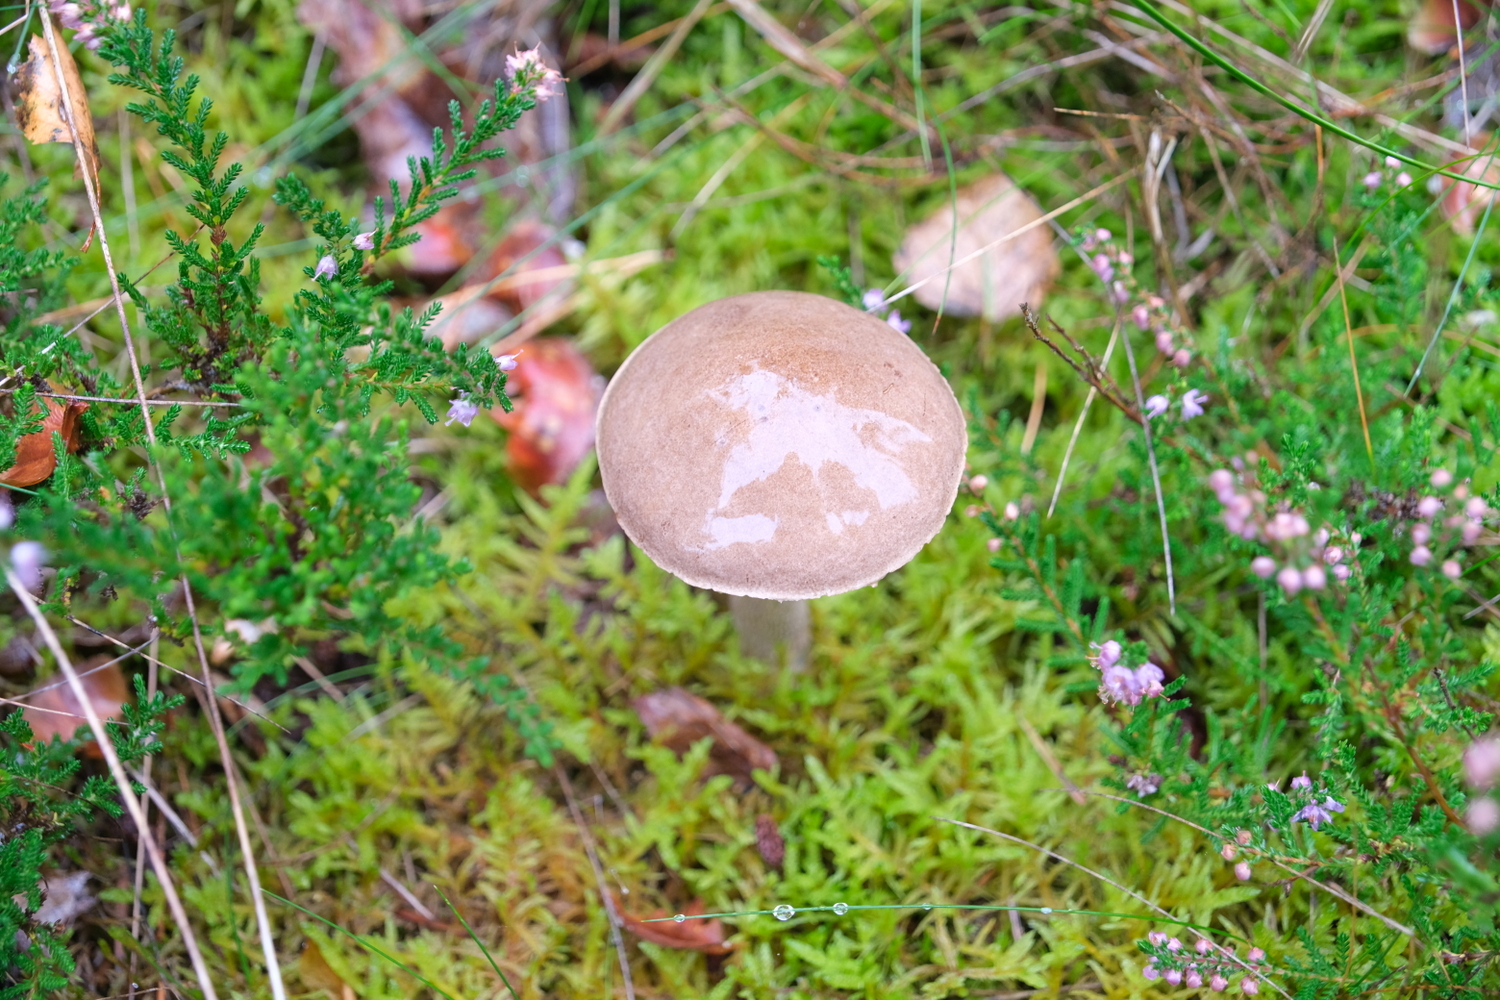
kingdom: Fungi
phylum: Basidiomycota
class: Agaricomycetes
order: Boletales
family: Boletaceae
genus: Leccinum
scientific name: Leccinum
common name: skælrørhat
